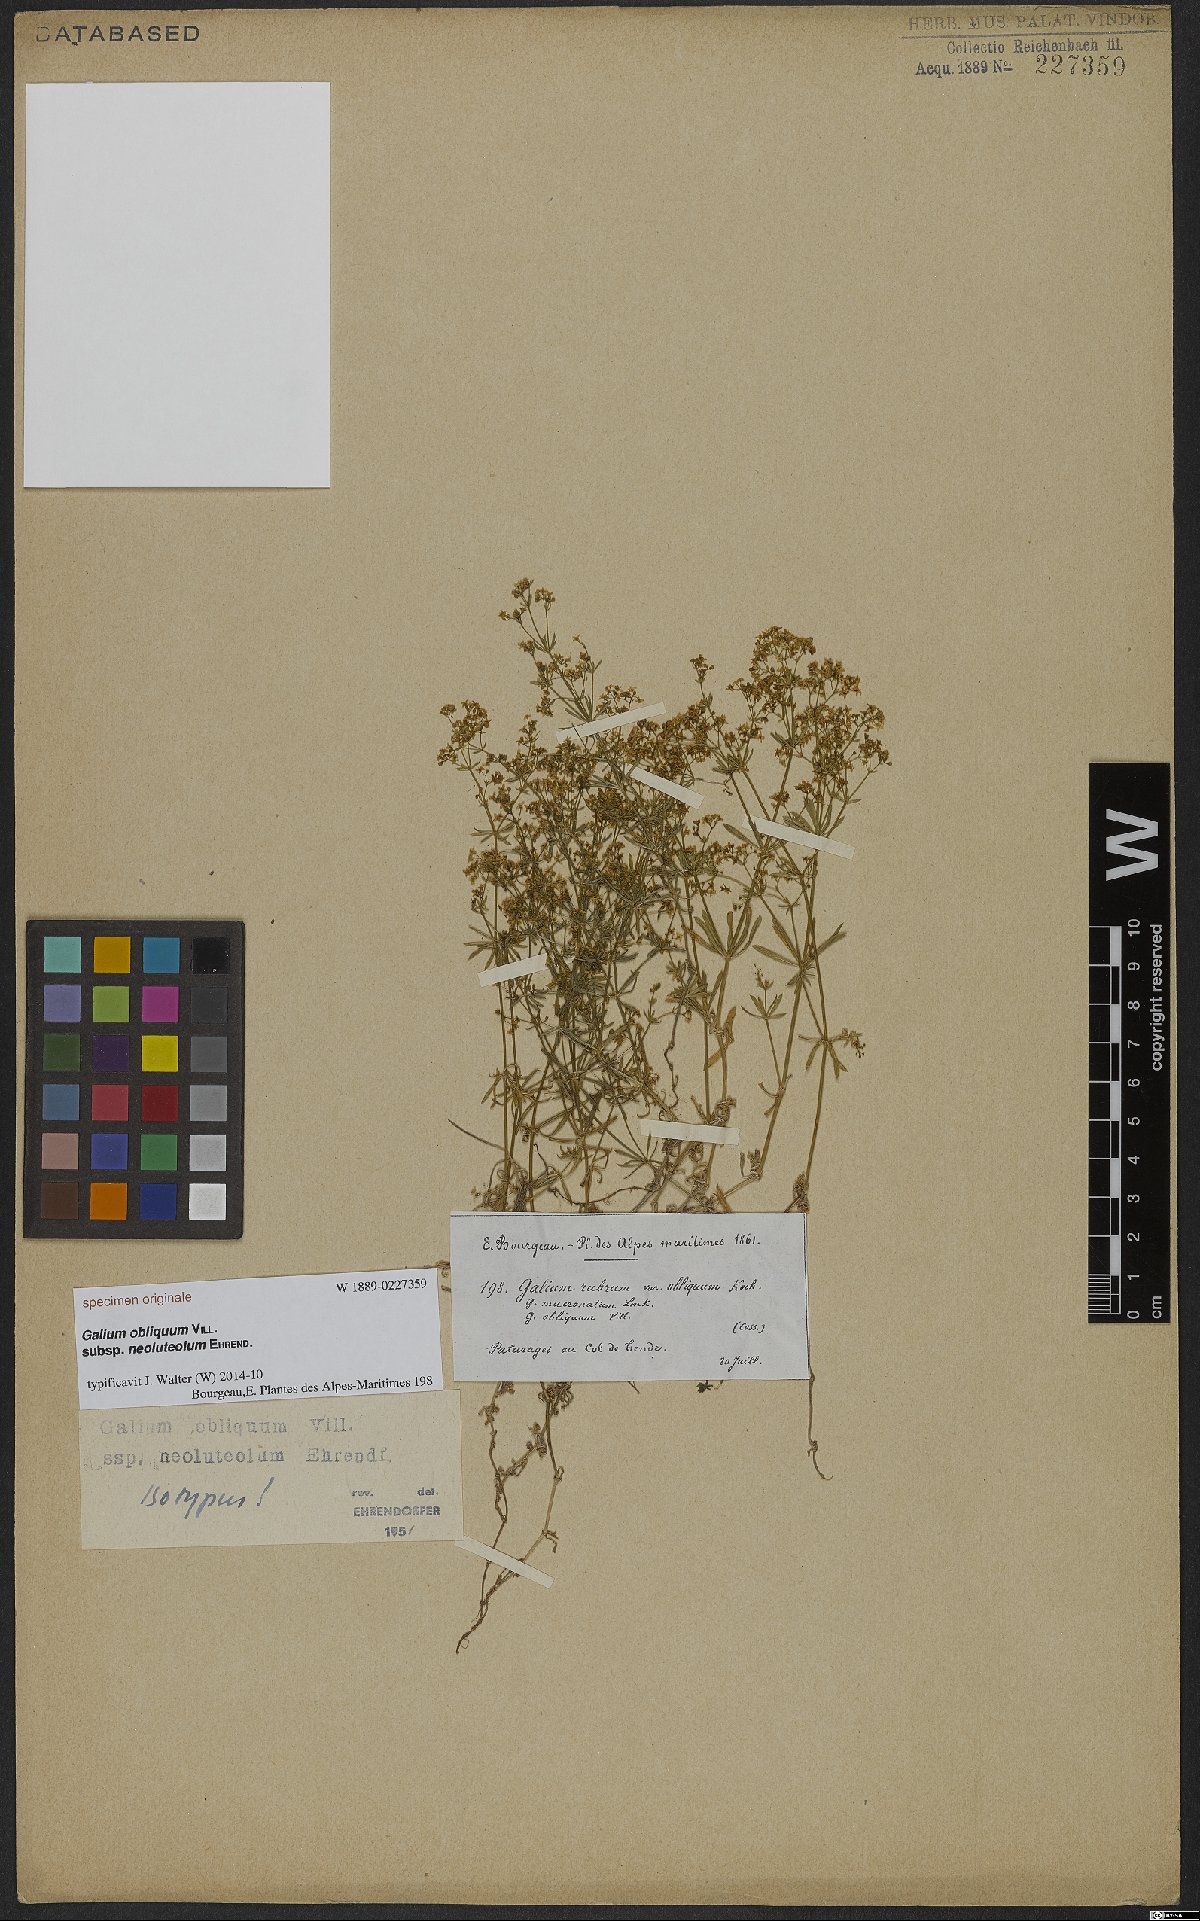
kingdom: Plantae
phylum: Tracheophyta
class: Magnoliopsida
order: Gentianales
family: Rubiaceae
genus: Galium
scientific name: Galium obliquum
